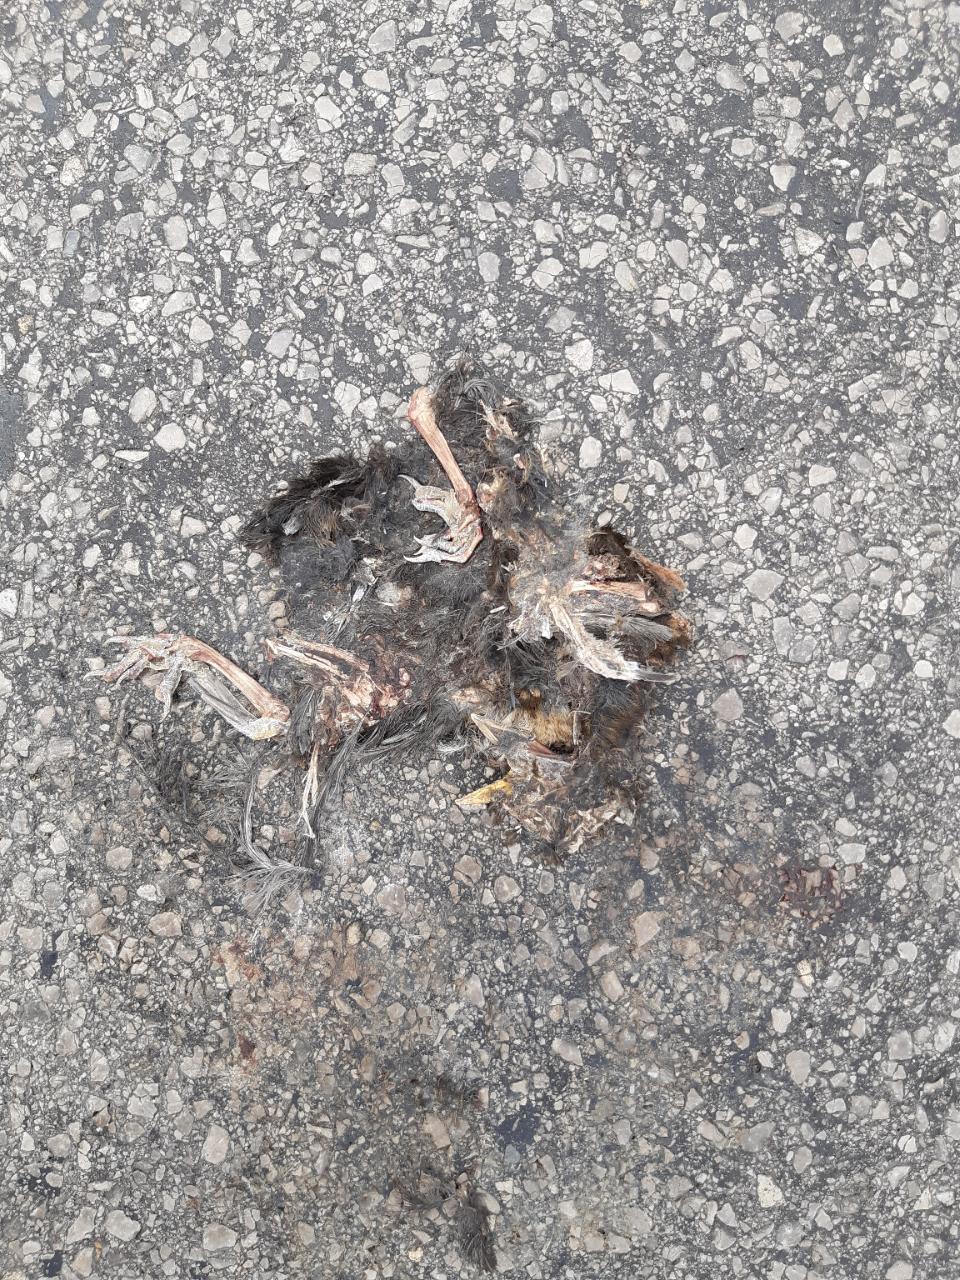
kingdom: Animalia
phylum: Chordata
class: Aves
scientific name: Aves
